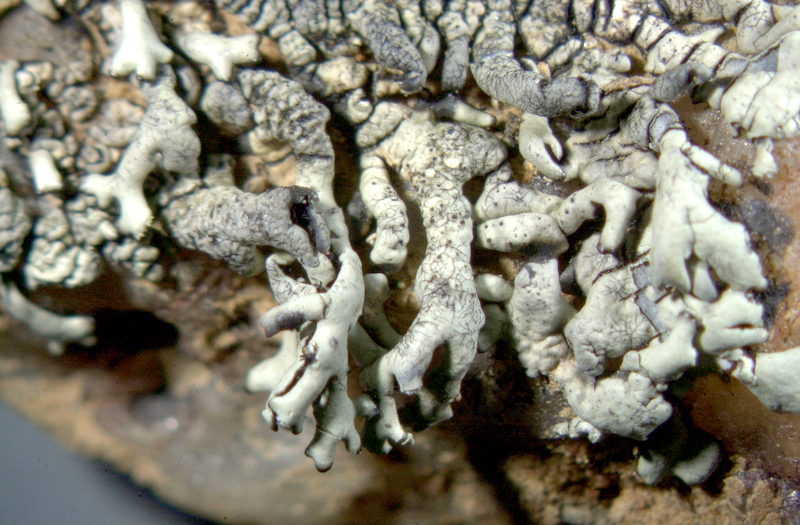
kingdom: Fungi
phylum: Ascomycota
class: Lecanoromycetes
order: Lecanorales
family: Parmeliaceae
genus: Xanthoparmelia
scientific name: Xanthoparmelia
